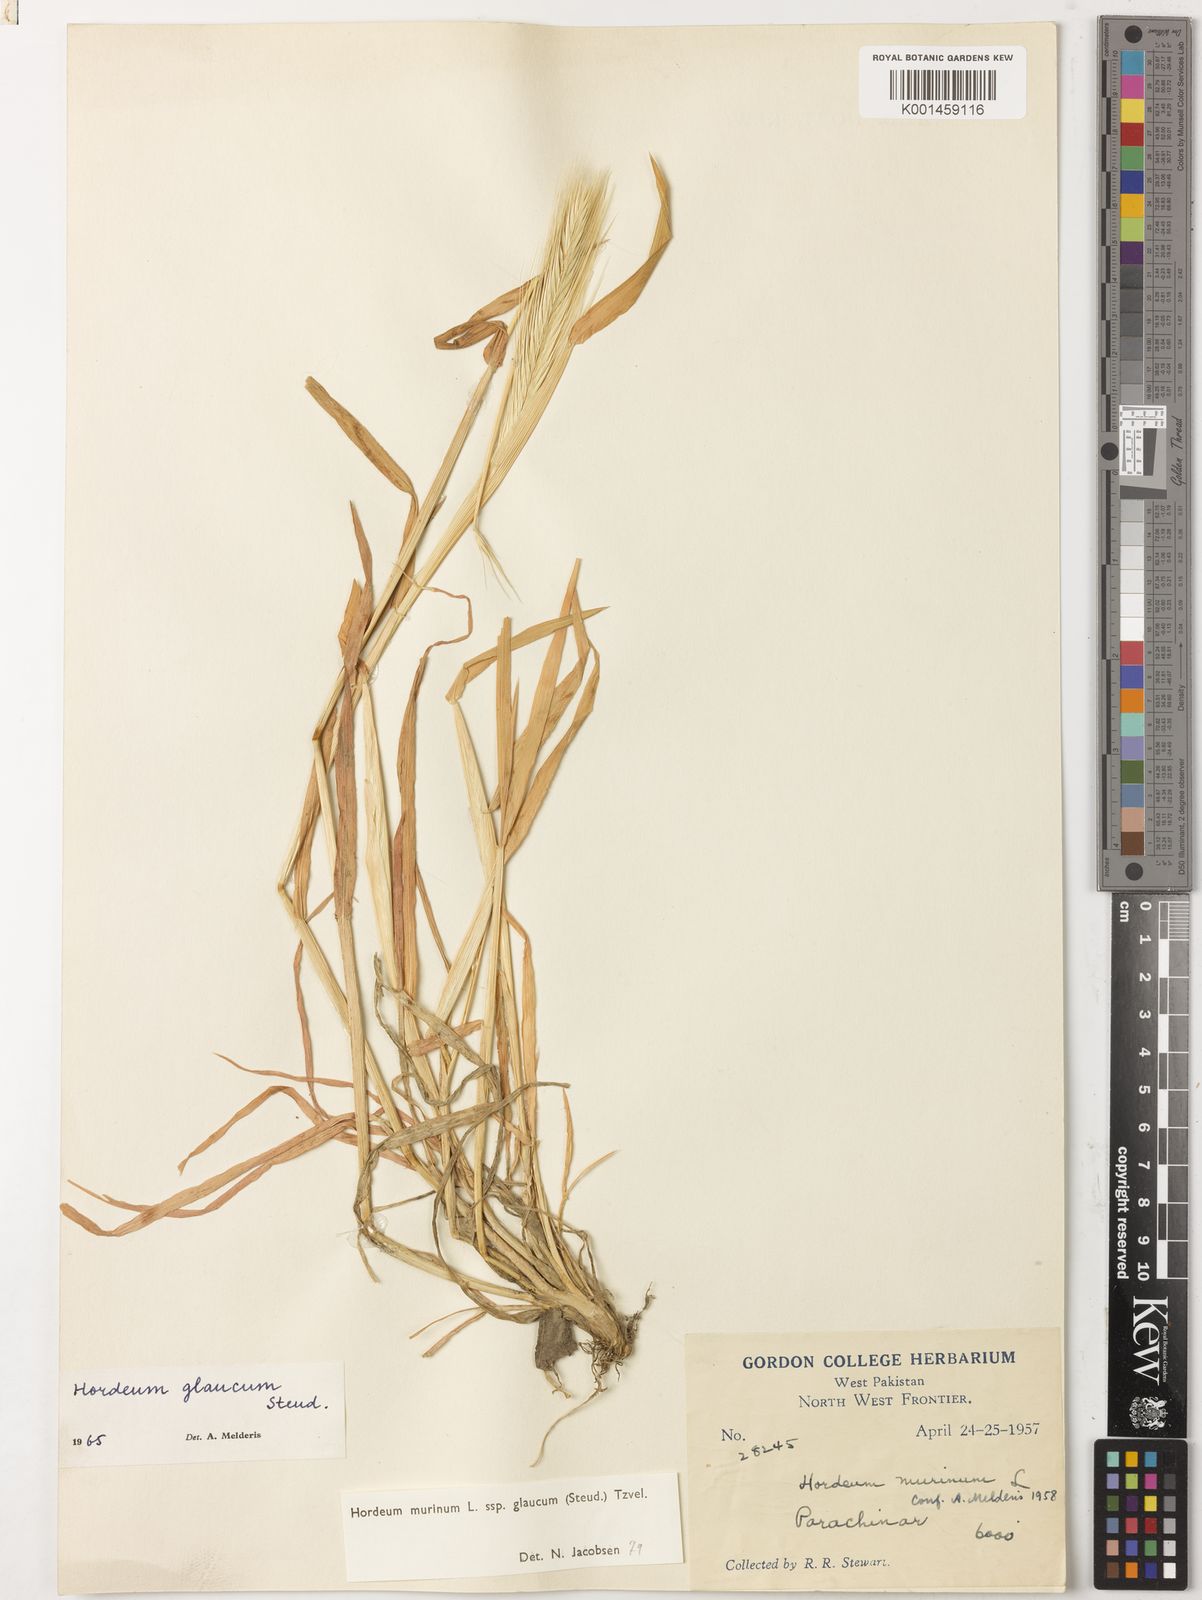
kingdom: Plantae
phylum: Tracheophyta
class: Liliopsida
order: Poales
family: Poaceae
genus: Hordeum
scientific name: Hordeum murinum
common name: Wall barley
